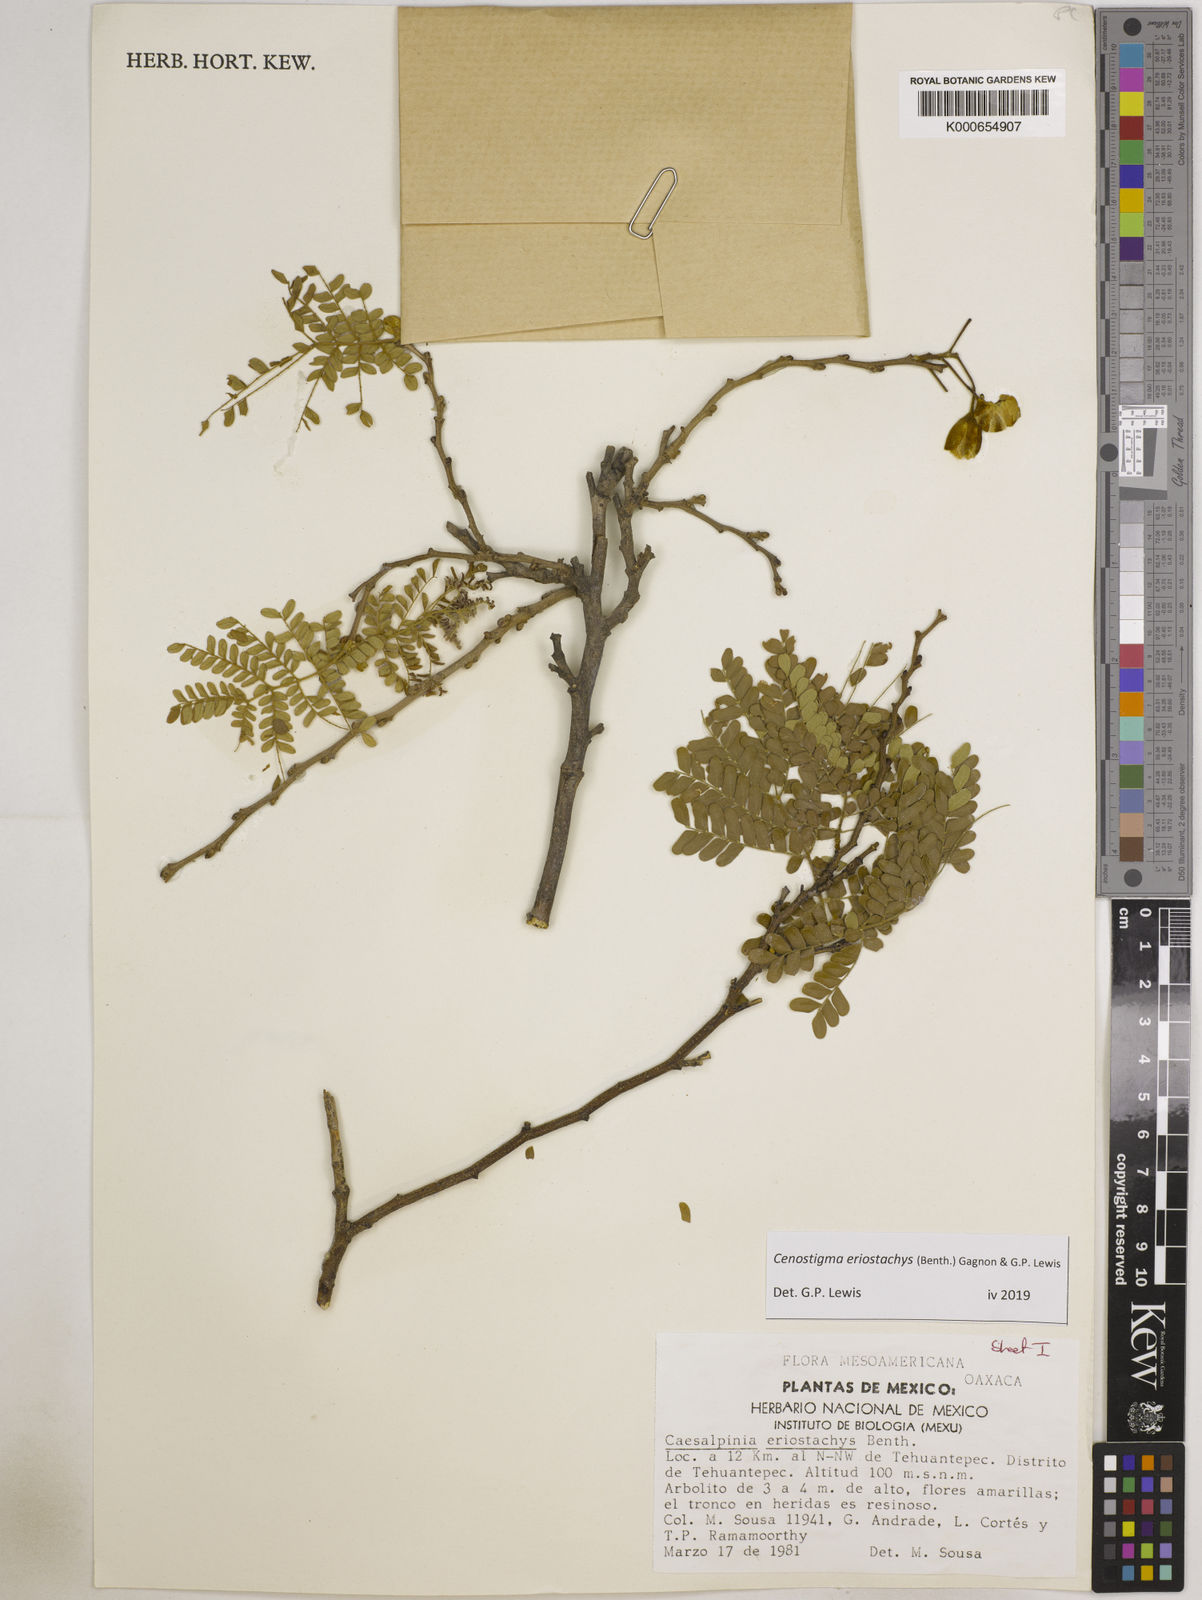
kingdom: Plantae
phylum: Tracheophyta
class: Magnoliopsida
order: Fabales
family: Fabaceae
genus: Cenostigma
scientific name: Cenostigma eriostachys
